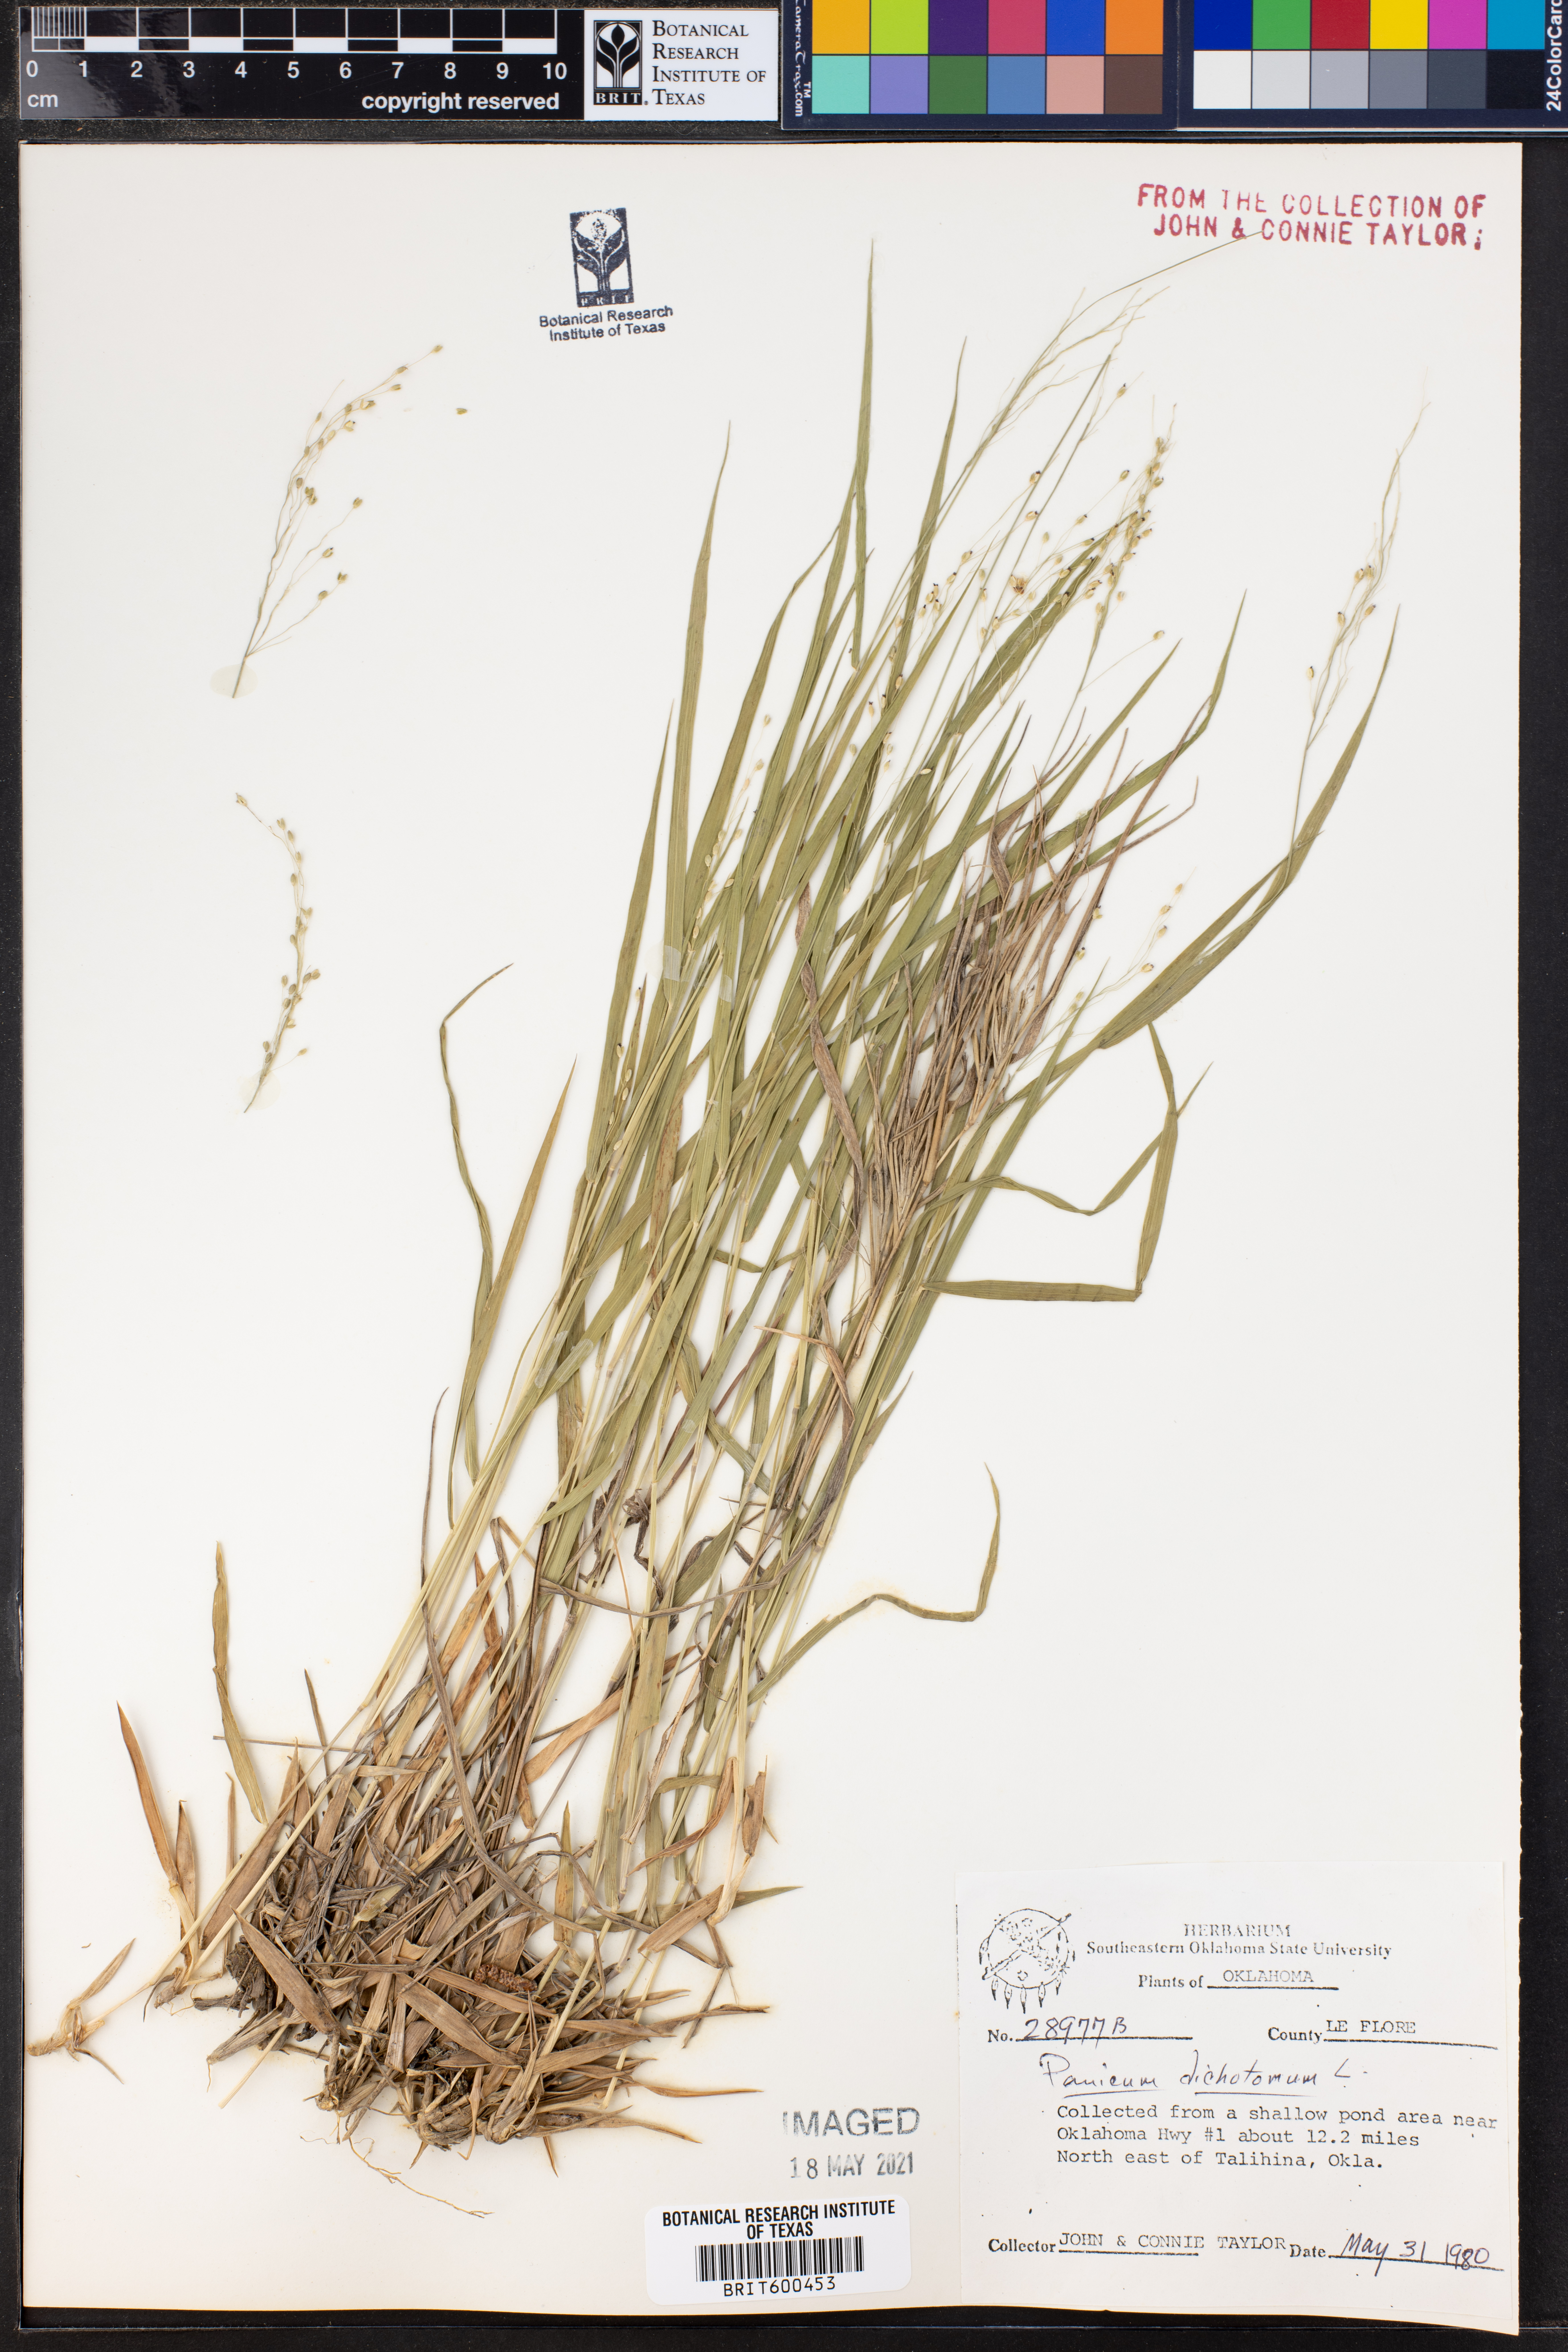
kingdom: Plantae
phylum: Tracheophyta
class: Liliopsida
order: Poales
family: Poaceae
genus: Dichanthelium
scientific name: Dichanthelium dichotomum
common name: Cypress panicgrass
